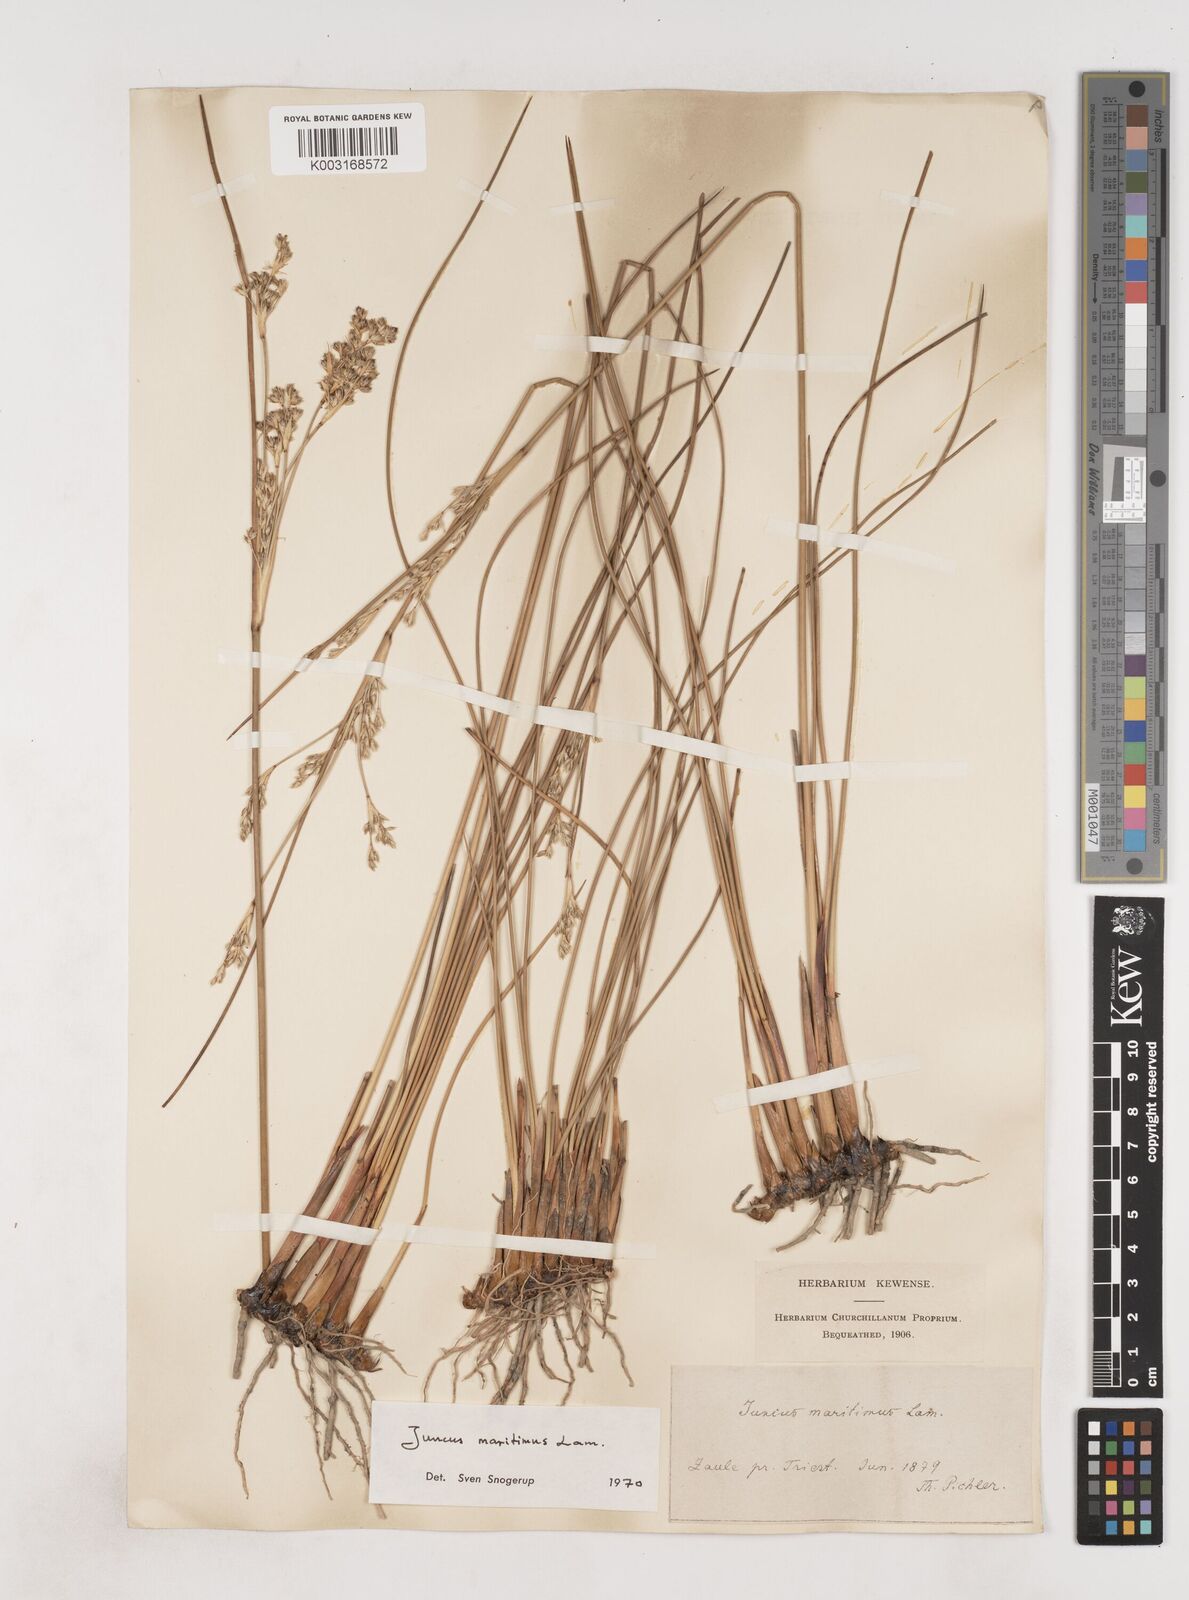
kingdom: Plantae
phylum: Tracheophyta
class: Liliopsida
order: Poales
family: Juncaceae
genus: Juncus
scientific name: Juncus maritimus
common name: Sea rush
